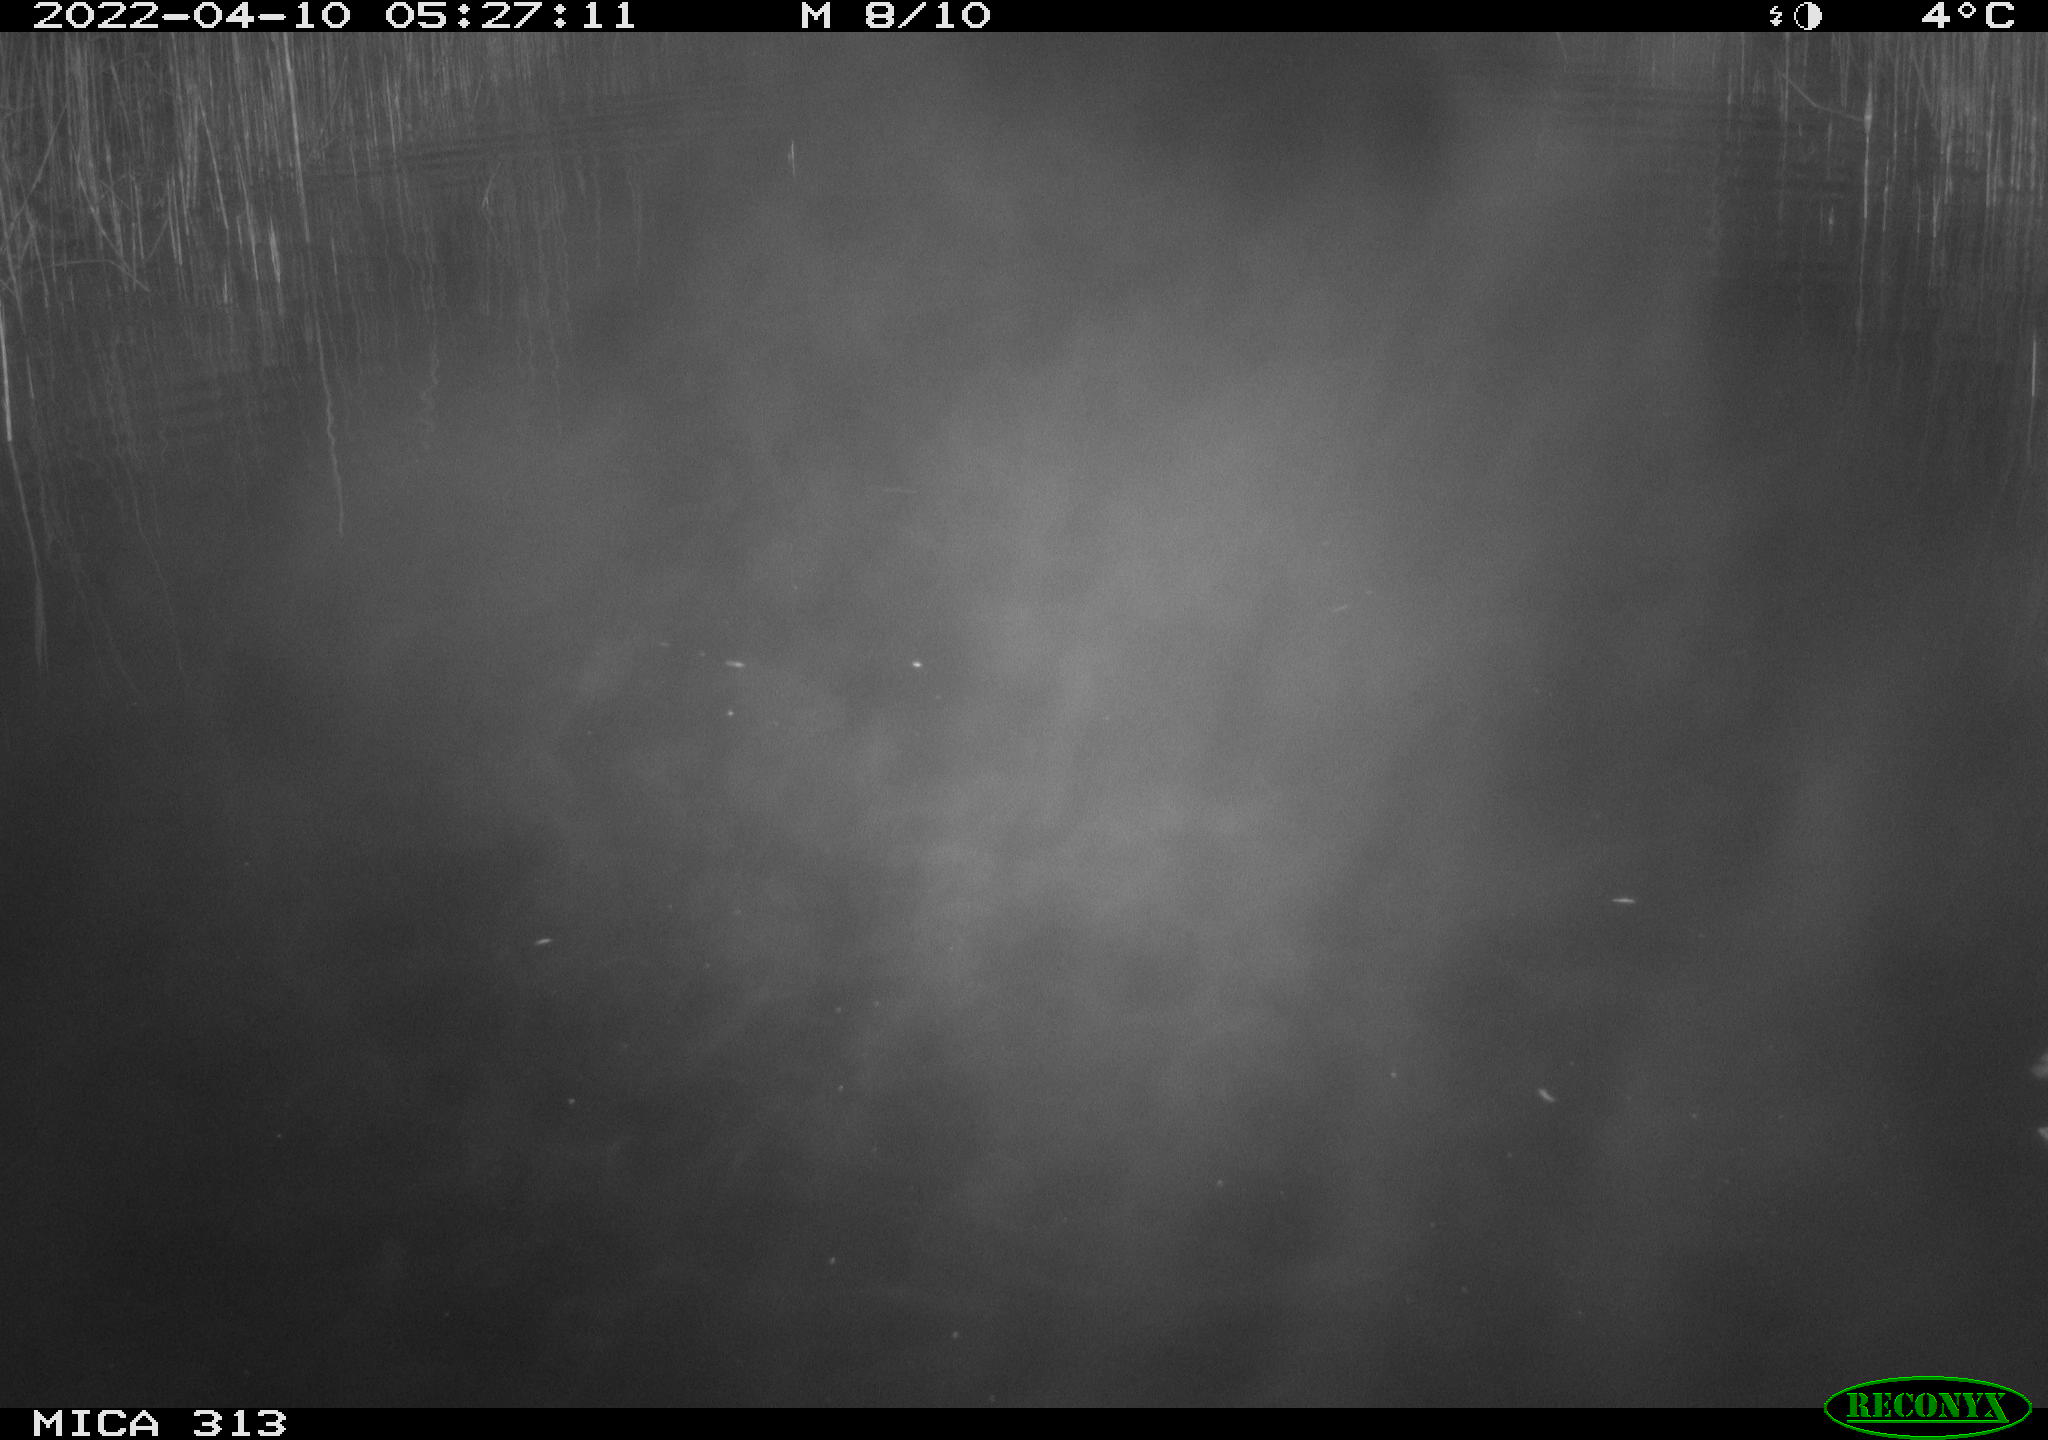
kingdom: Animalia
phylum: Chordata
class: Aves
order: Anseriformes
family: Anatidae
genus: Anas
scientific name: Anas platyrhynchos
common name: Mallard
